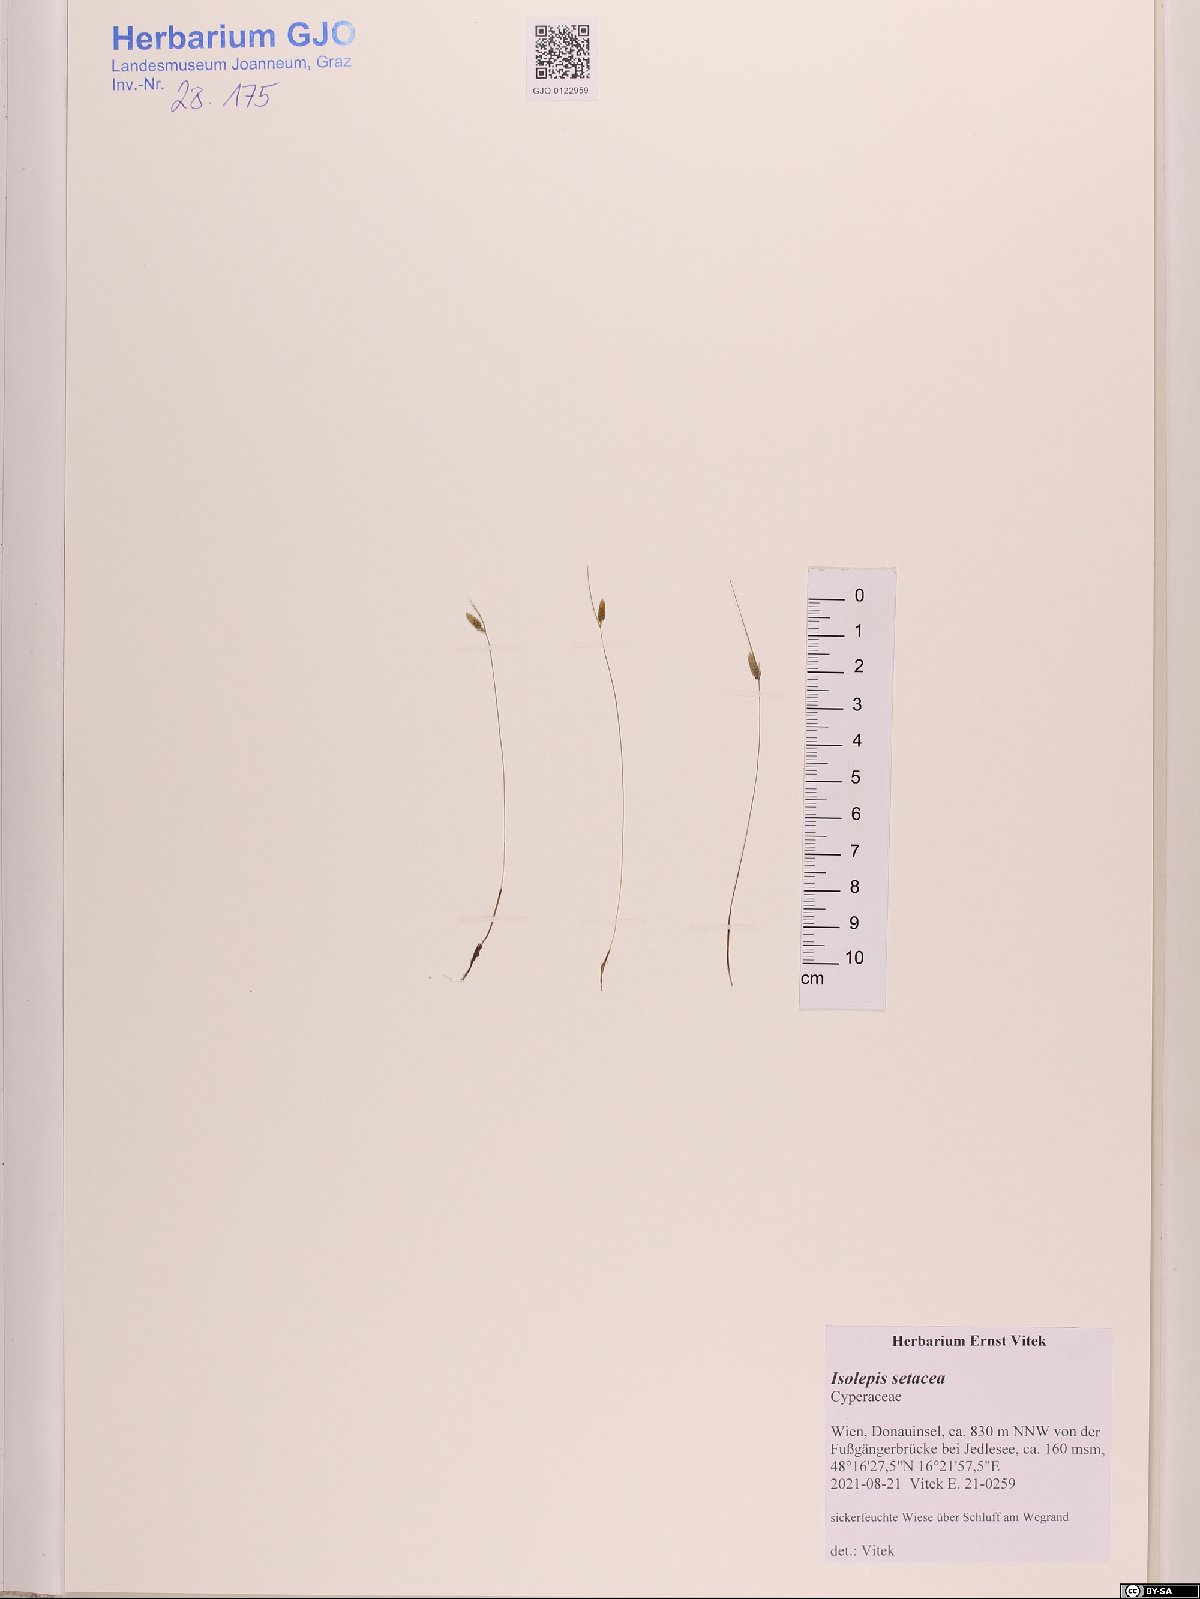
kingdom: Plantae
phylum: Tracheophyta
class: Liliopsida
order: Poales
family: Cyperaceae
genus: Isolepis
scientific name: Isolepis setacea
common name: Bristle club-rush
